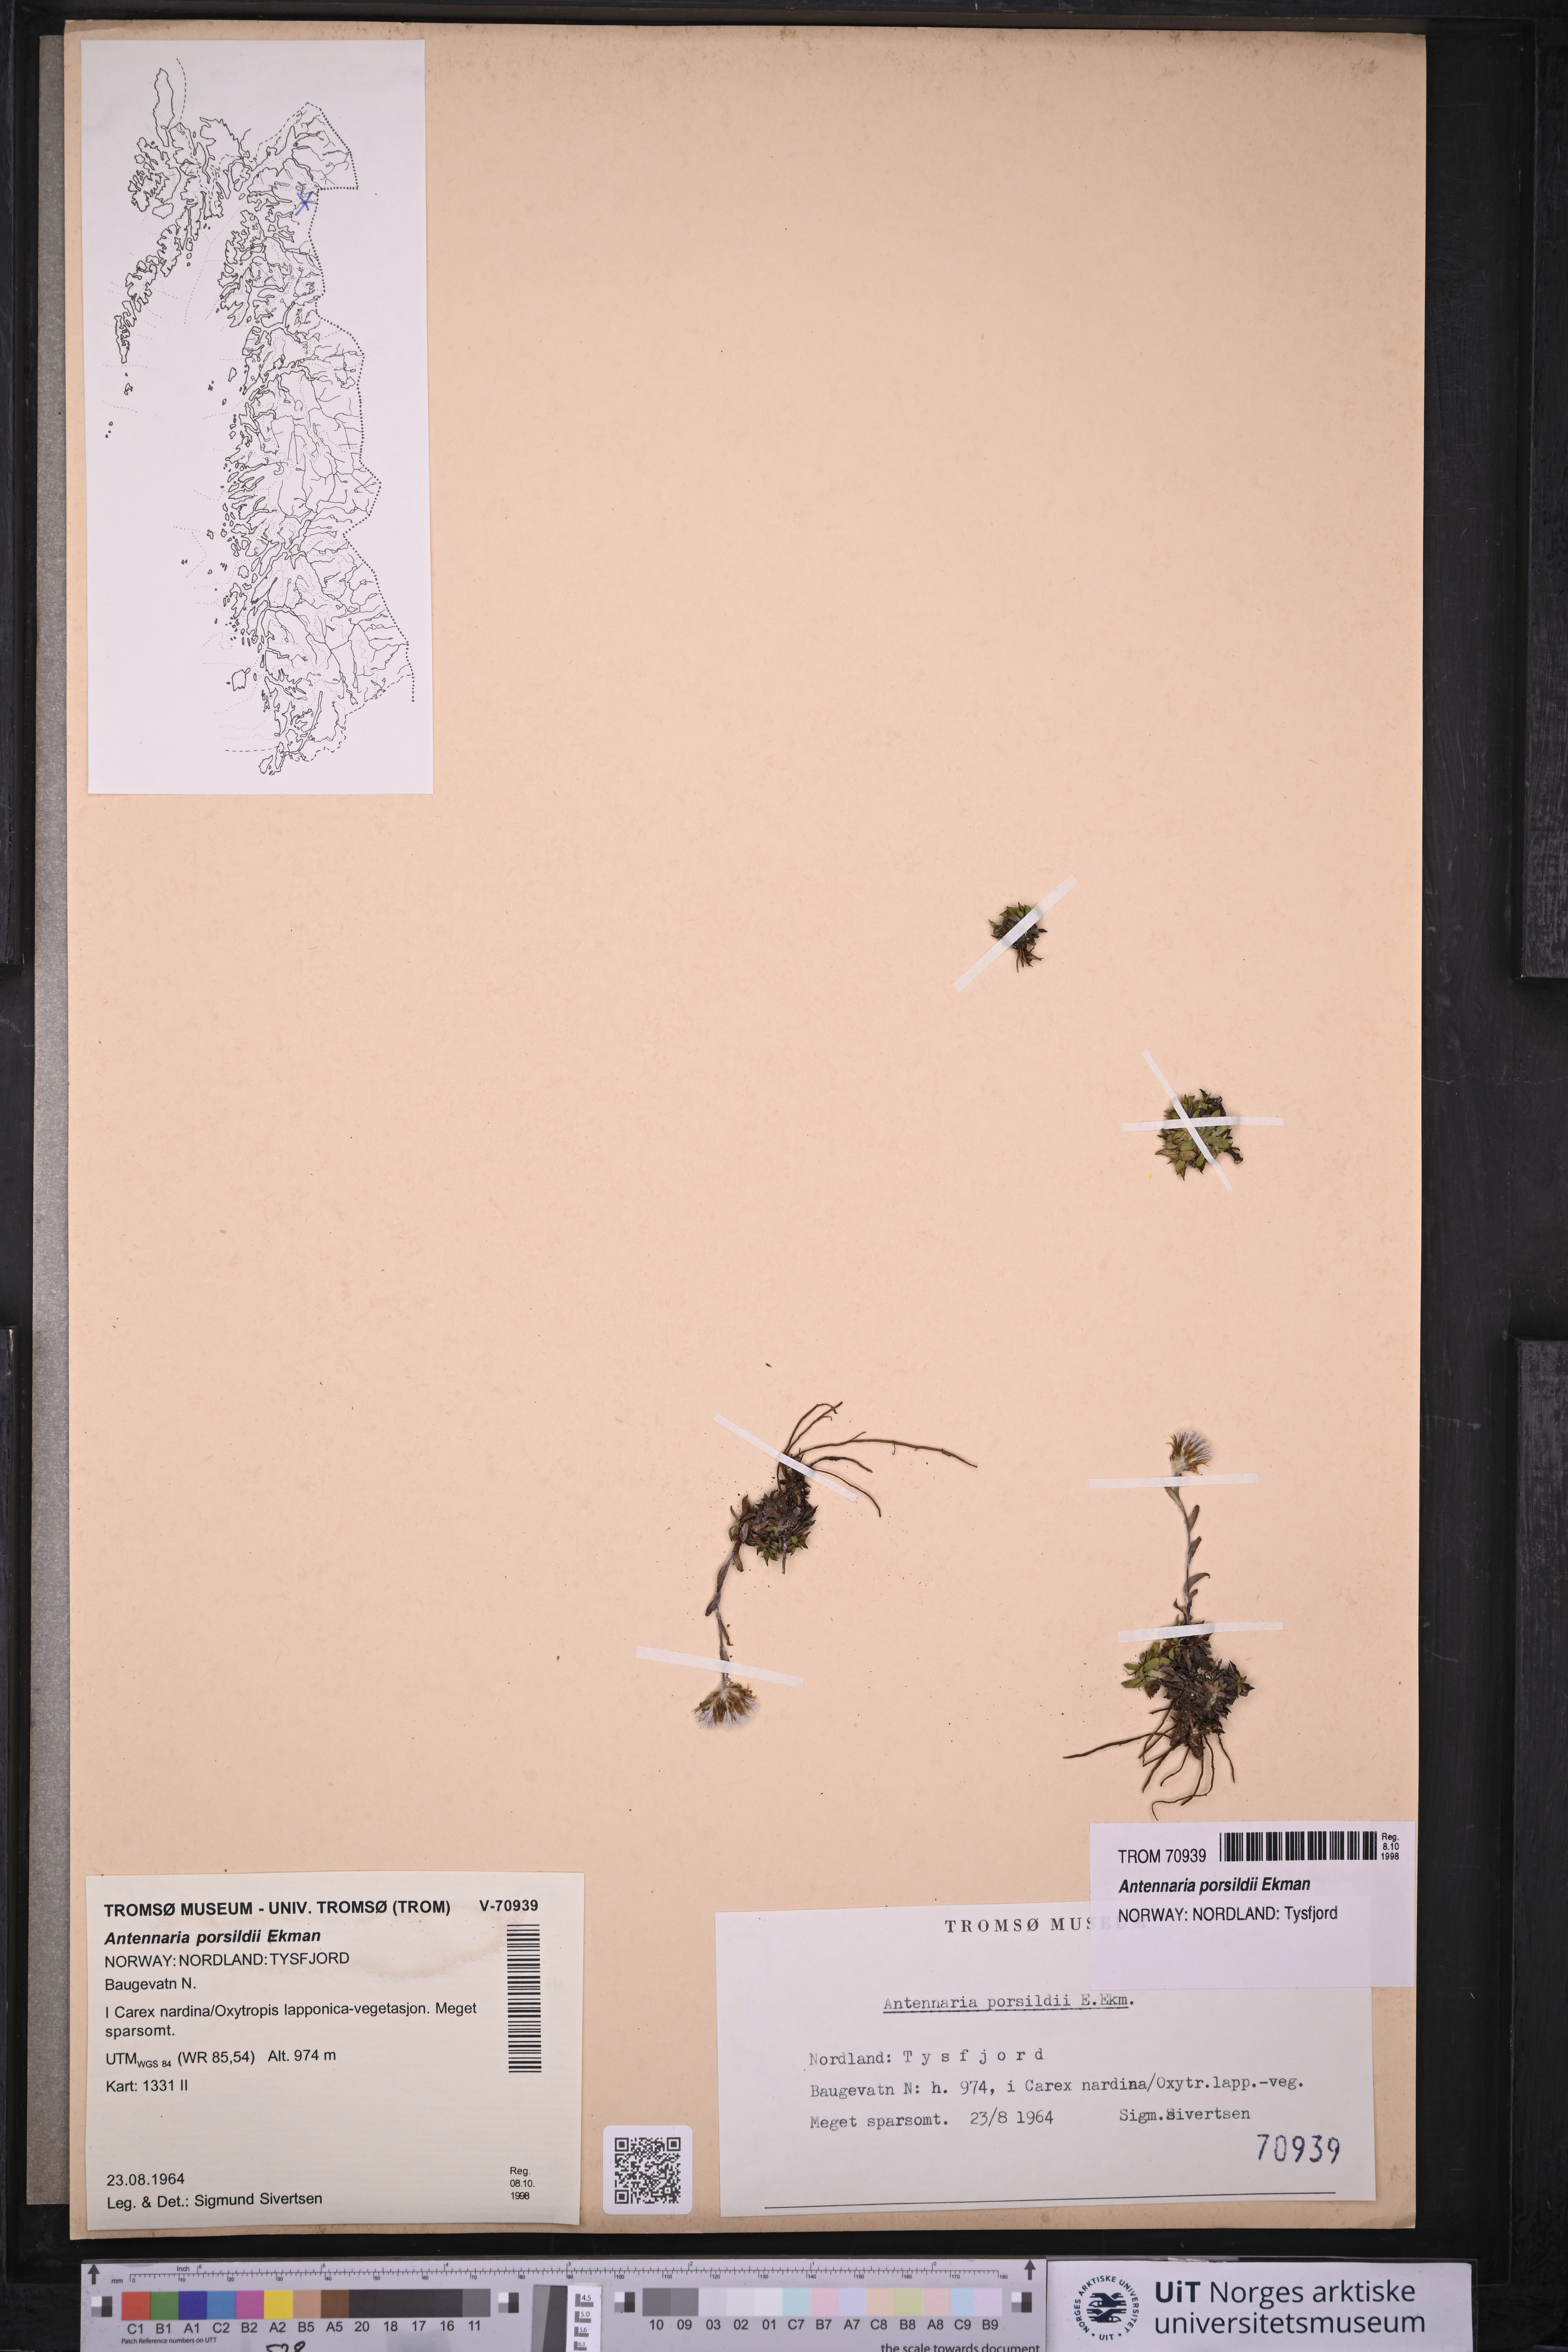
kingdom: Plantae
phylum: Tracheophyta
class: Magnoliopsida
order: Asterales
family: Asteraceae
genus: Antennaria
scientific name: Antennaria porsildii
